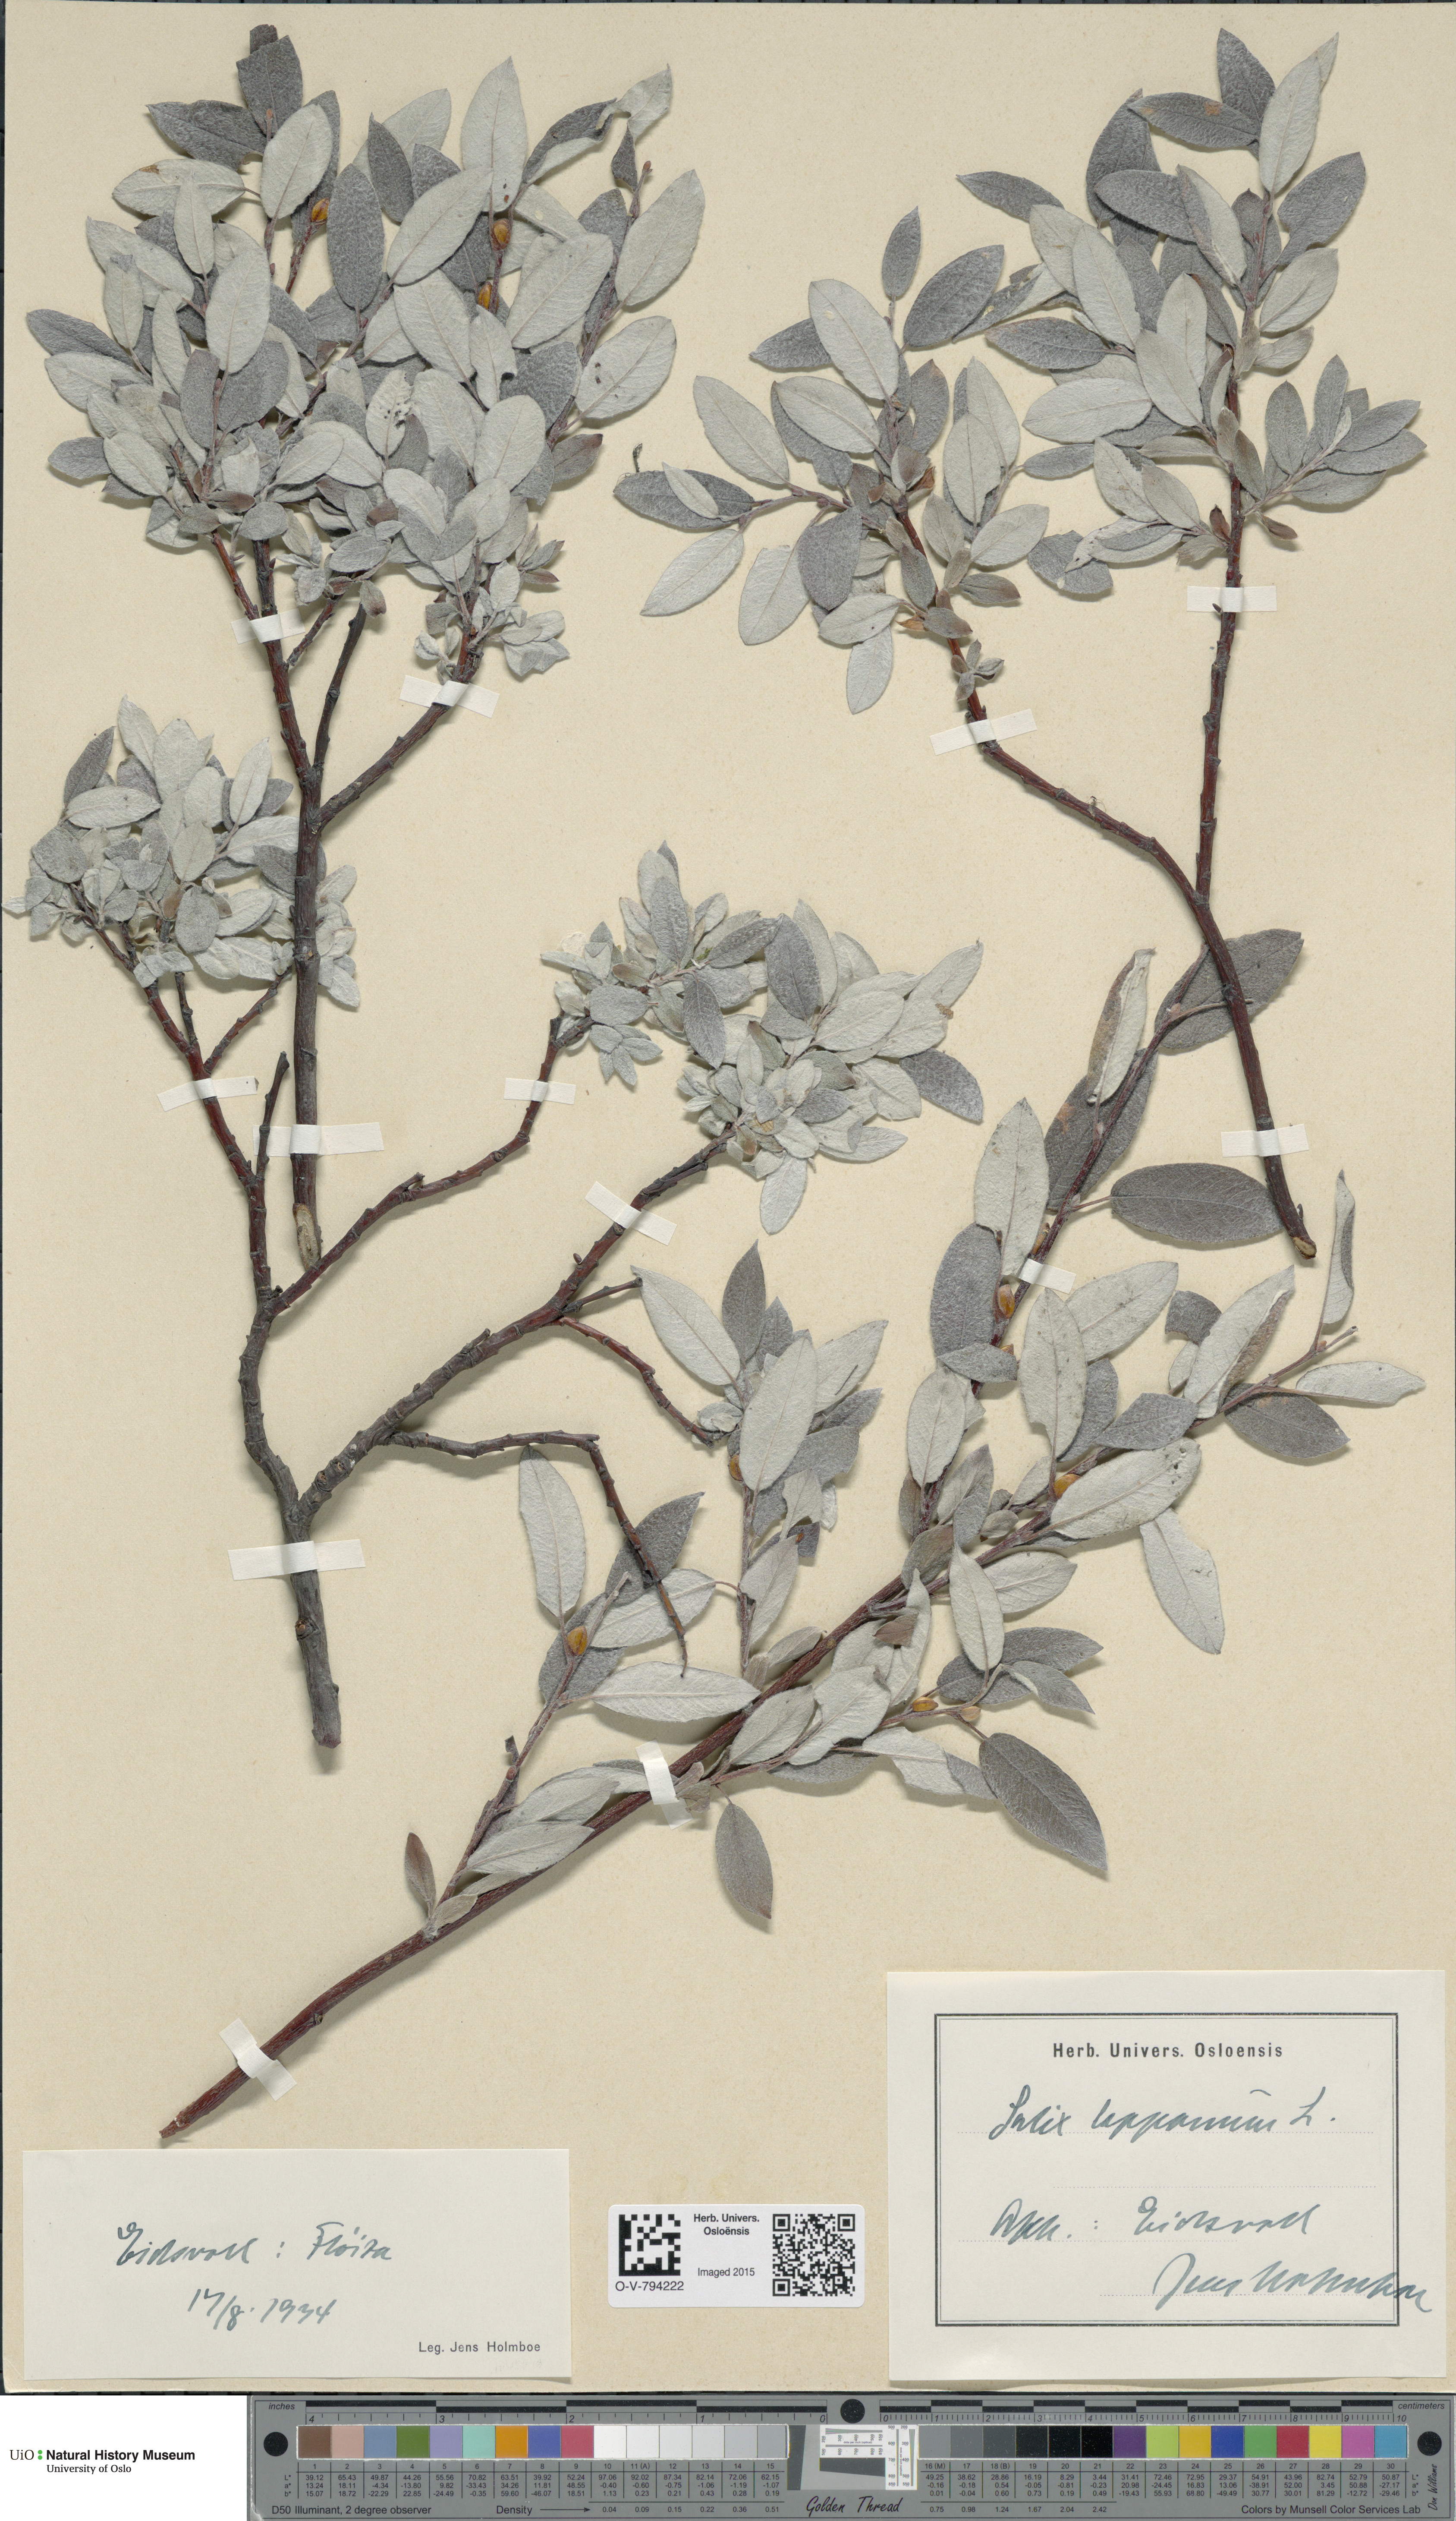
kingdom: Plantae
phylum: Tracheophyta
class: Magnoliopsida
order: Malpighiales
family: Salicaceae
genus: Salix
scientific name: Salix lapponum
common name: Downy willow
